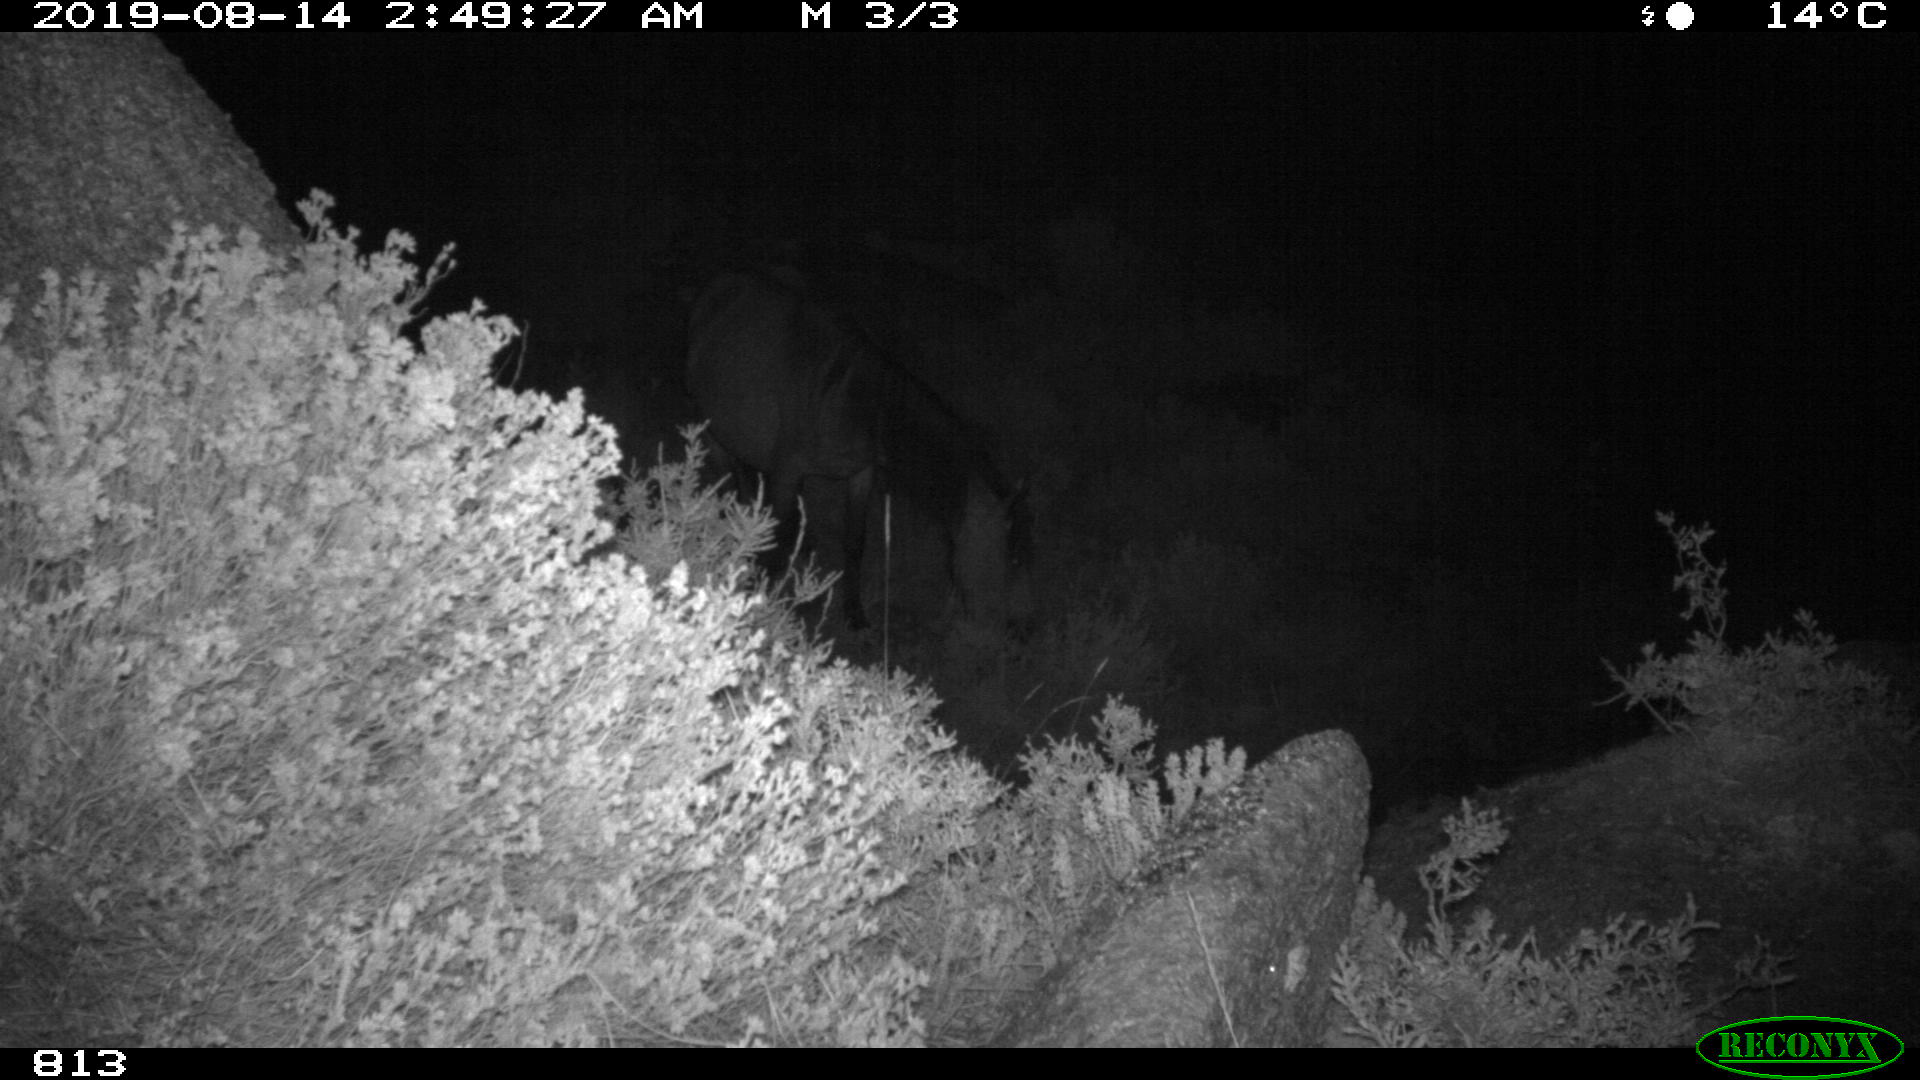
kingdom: Animalia
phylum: Chordata
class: Mammalia
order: Perissodactyla
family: Equidae
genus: Equus
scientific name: Equus caballus
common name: Horse
